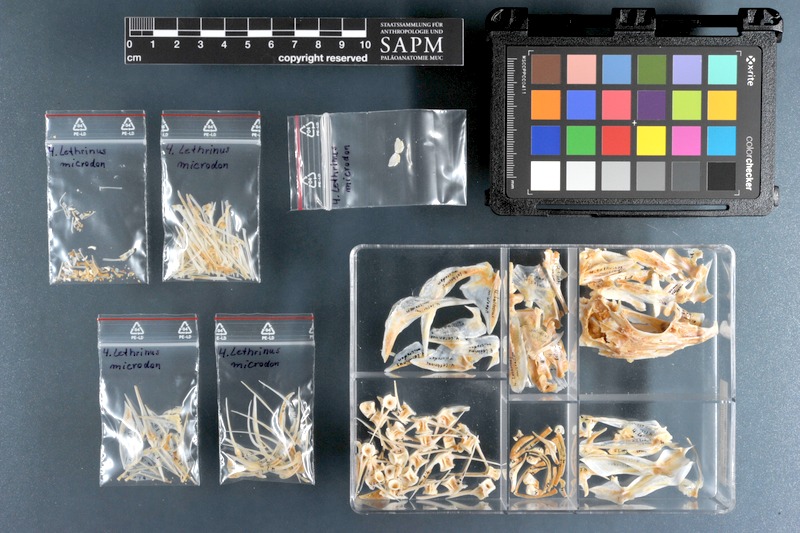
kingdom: Animalia
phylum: Chordata
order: Perciformes
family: Lethrinidae
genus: Lethrinus
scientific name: Lethrinus microdon
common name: Smalltooth emperor
